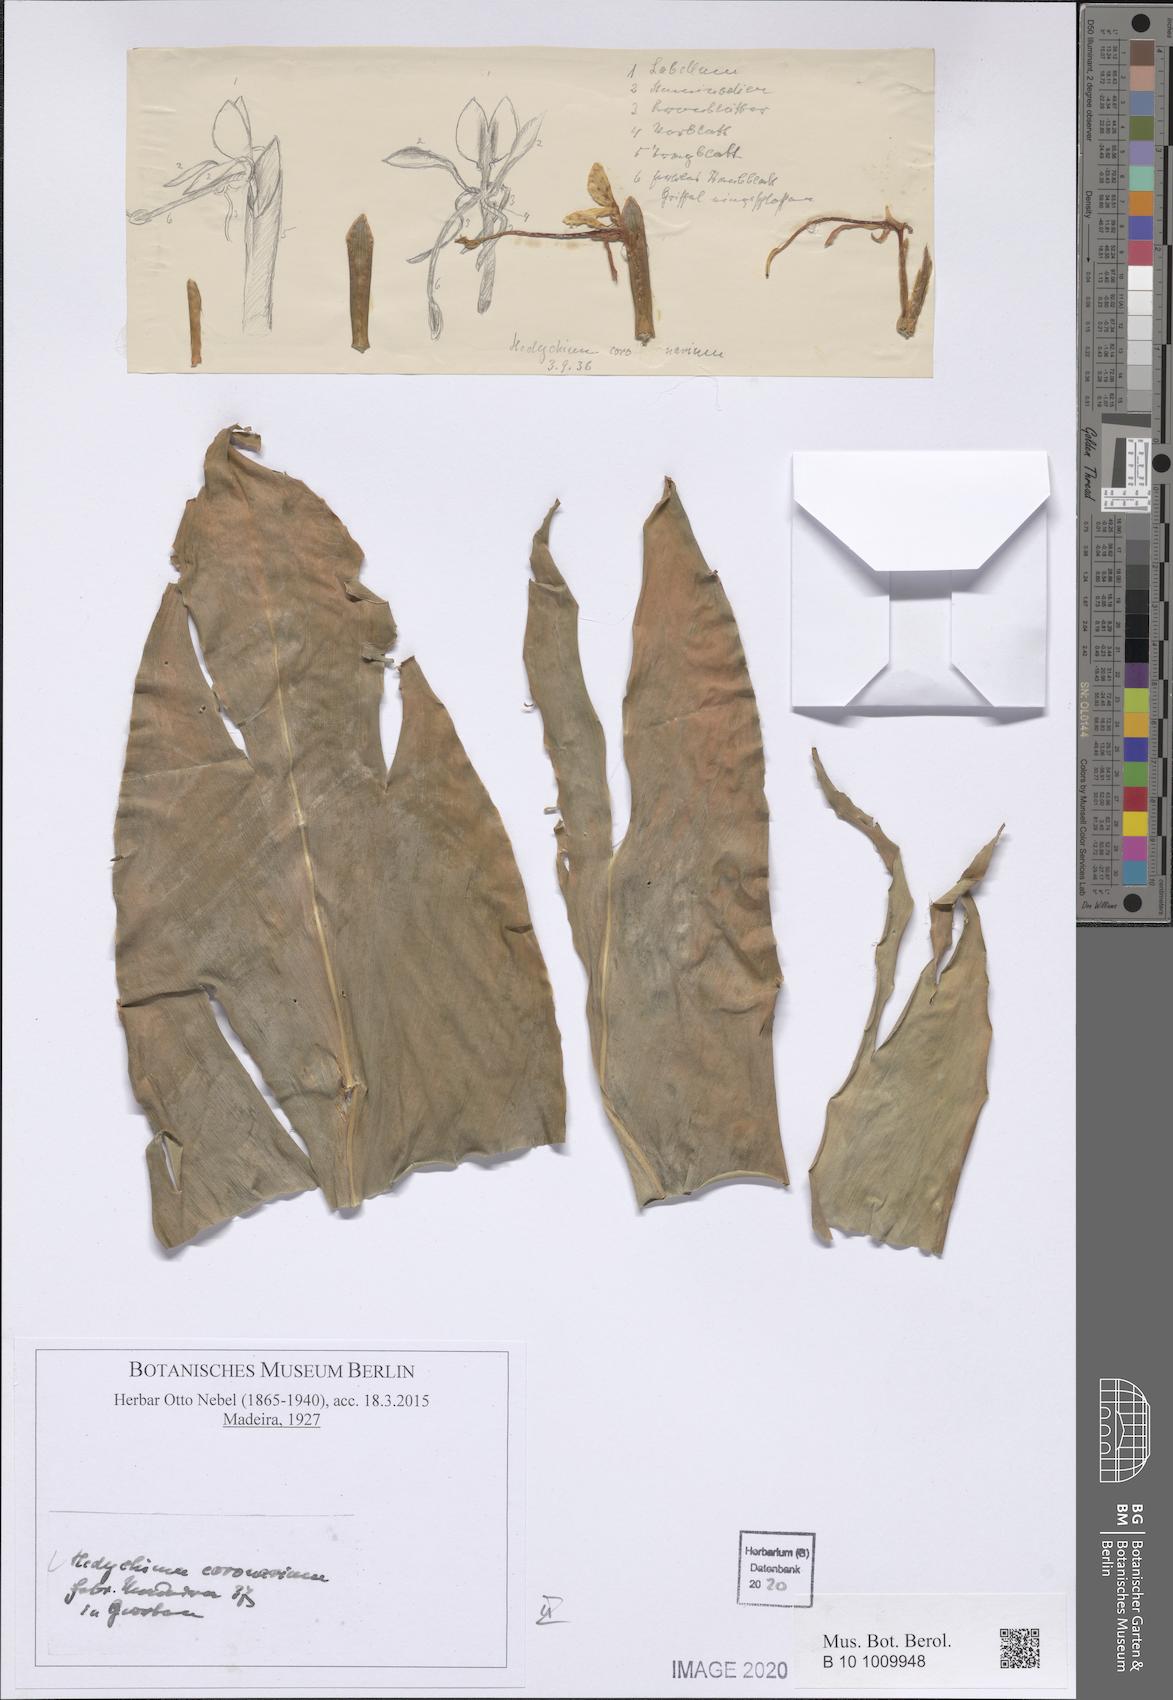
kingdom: Plantae
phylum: Tracheophyta
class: Liliopsida
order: Zingiberales
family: Zingiberaceae
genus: Hedychium
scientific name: Hedychium coronarium
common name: White garland-lily
